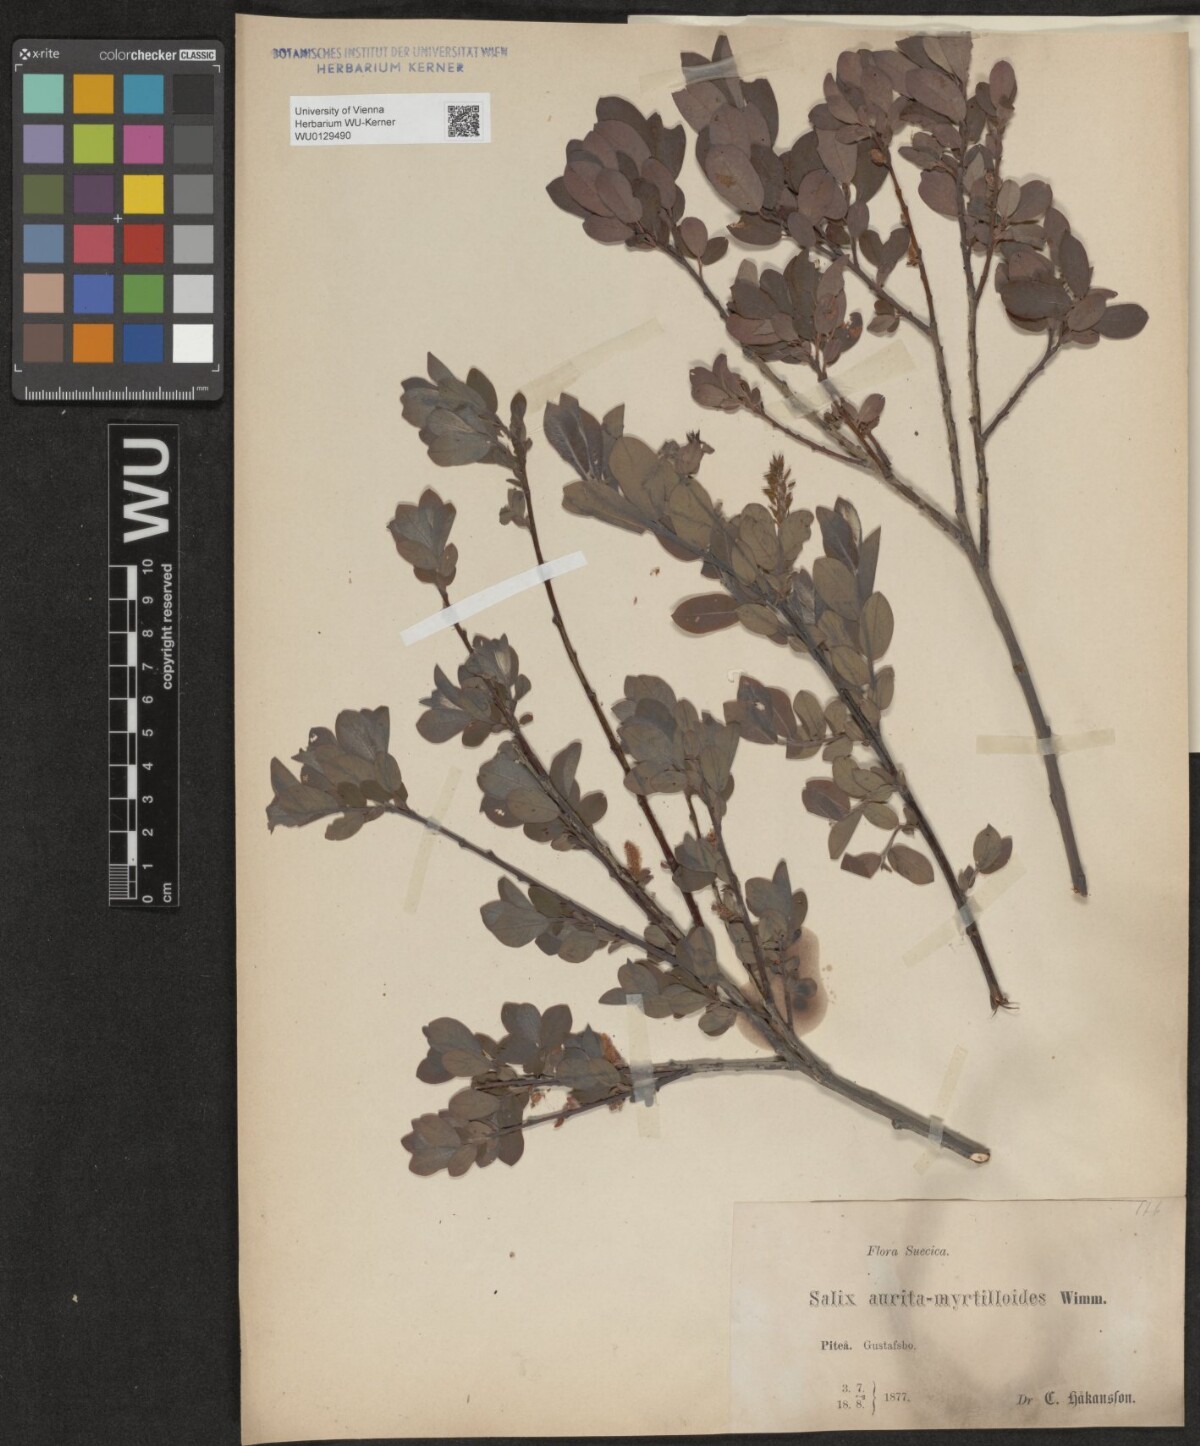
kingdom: Plantae
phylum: Tracheophyta
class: Magnoliopsida
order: Malpighiales
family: Salicaceae
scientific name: Salicaceae
